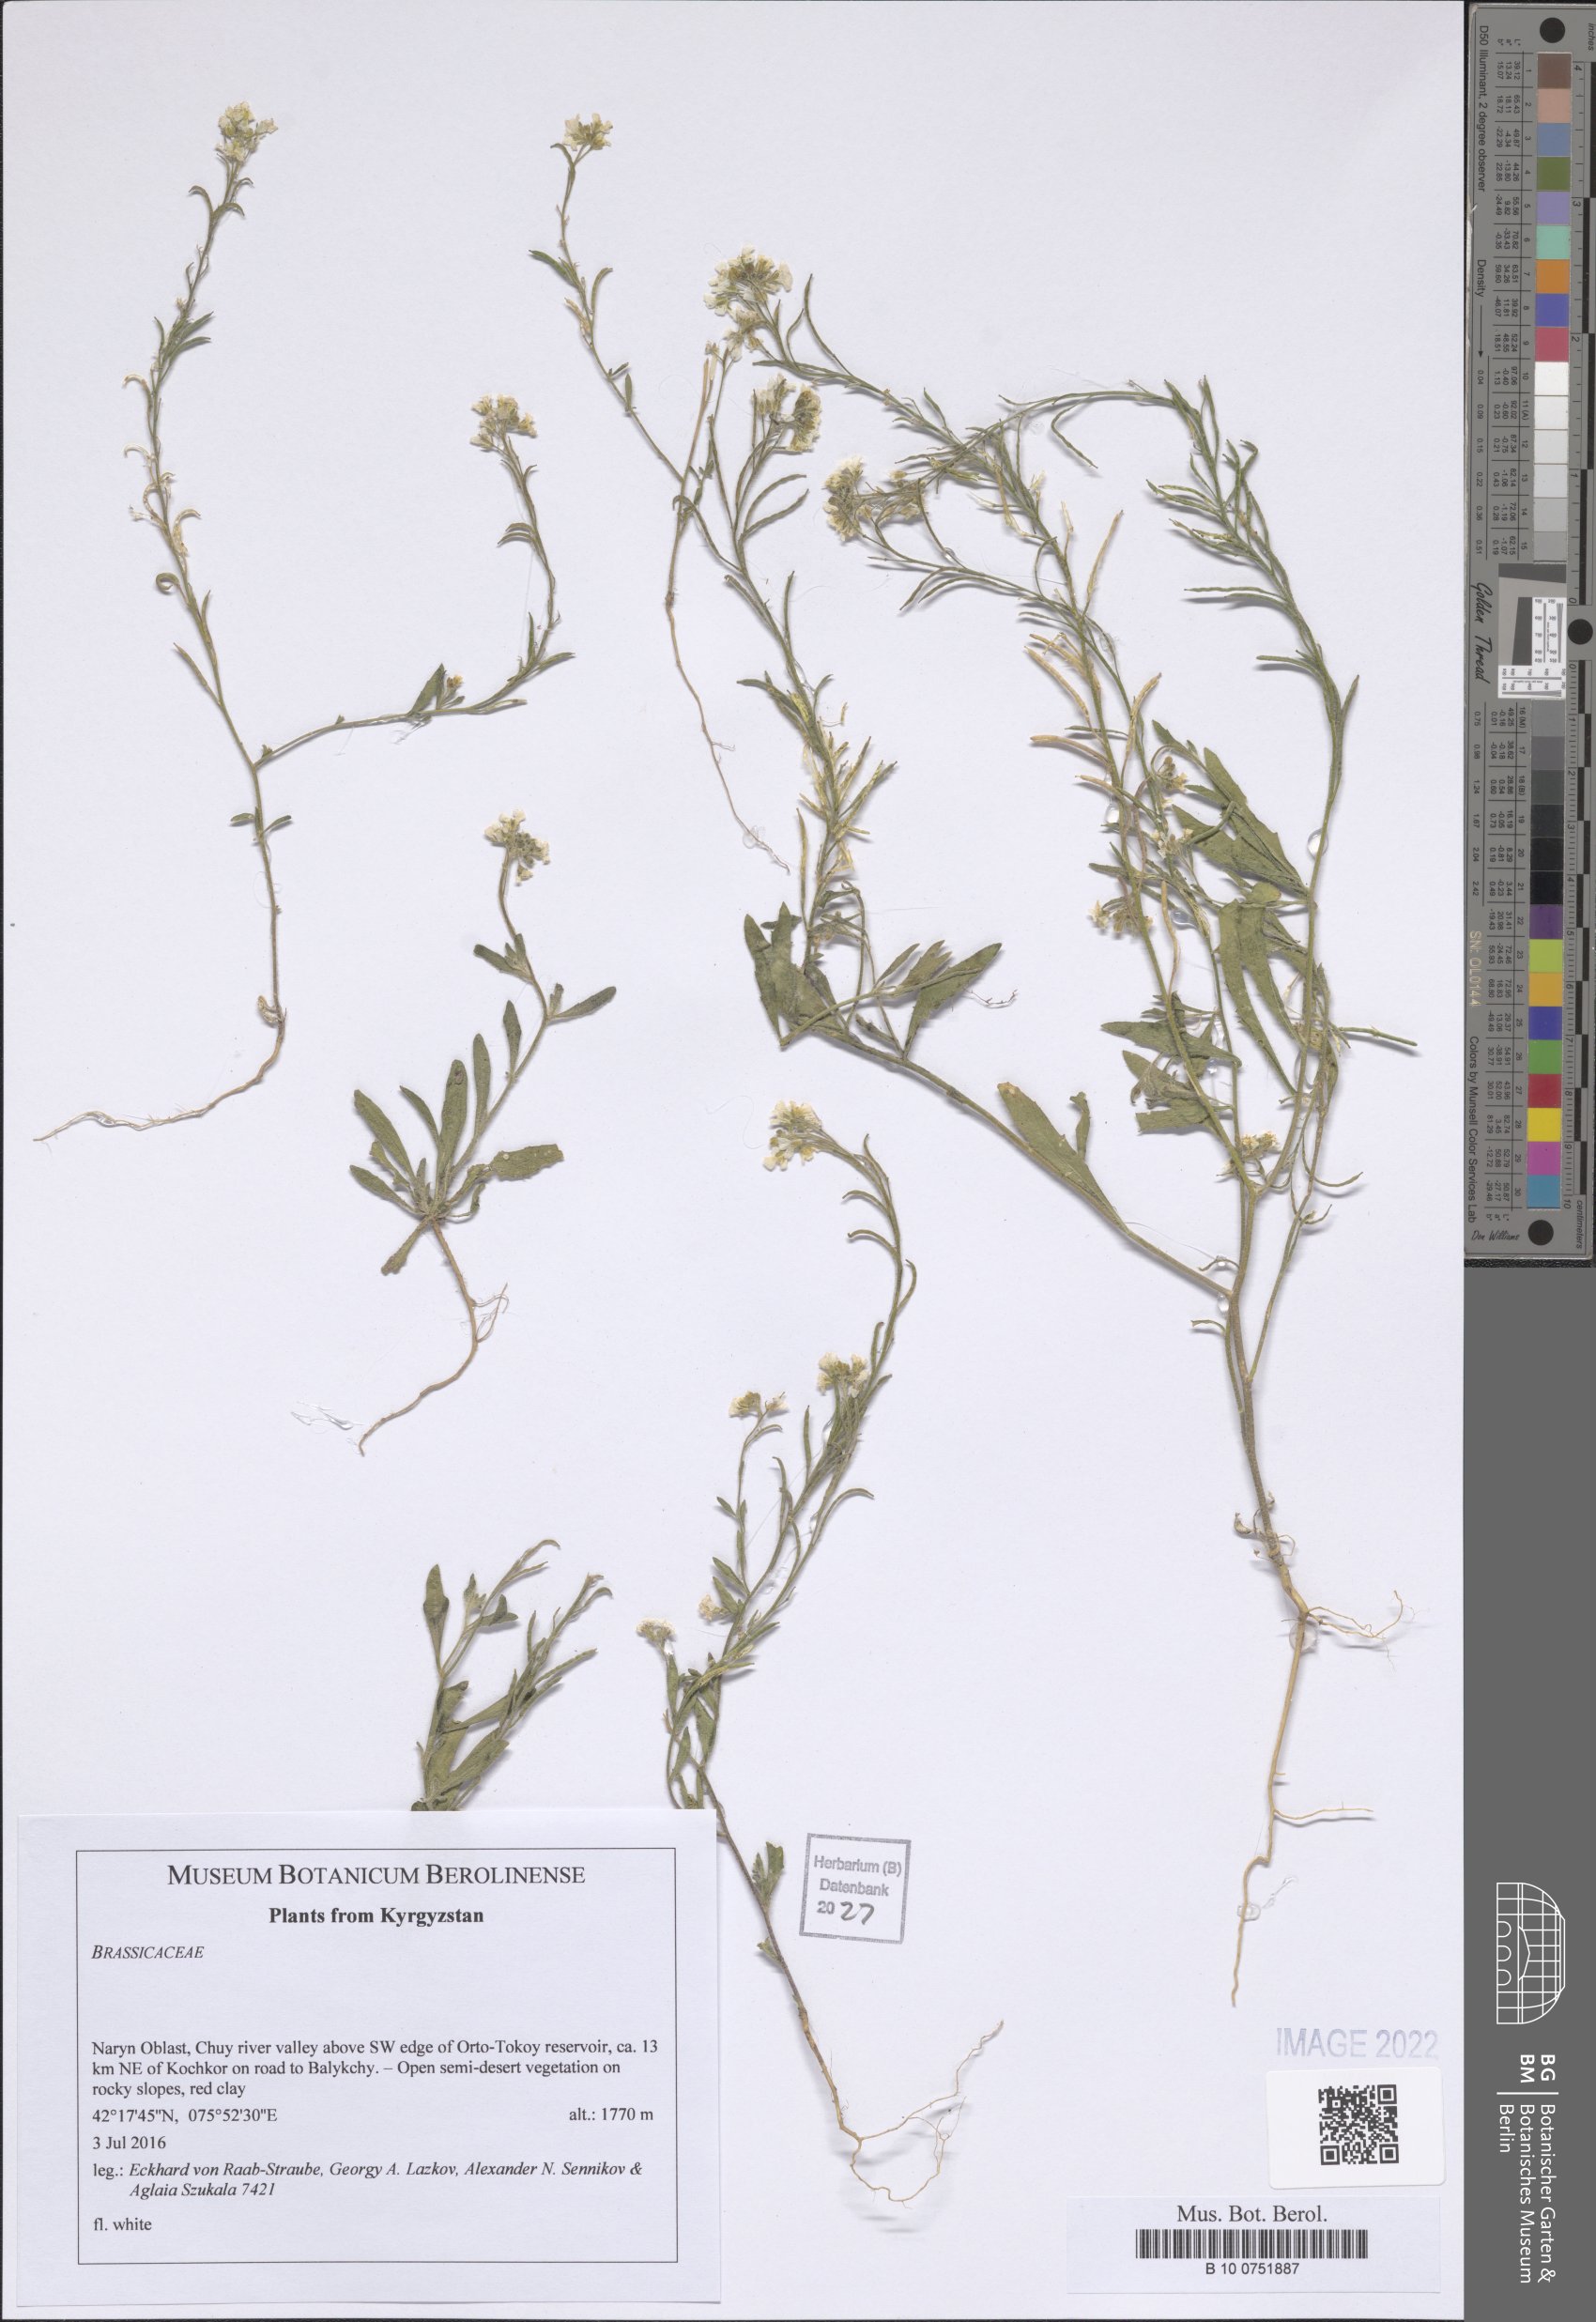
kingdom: Plantae
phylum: Tracheophyta
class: Magnoliopsida
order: Brassicales
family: Brassicaceae
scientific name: Brassicaceae
